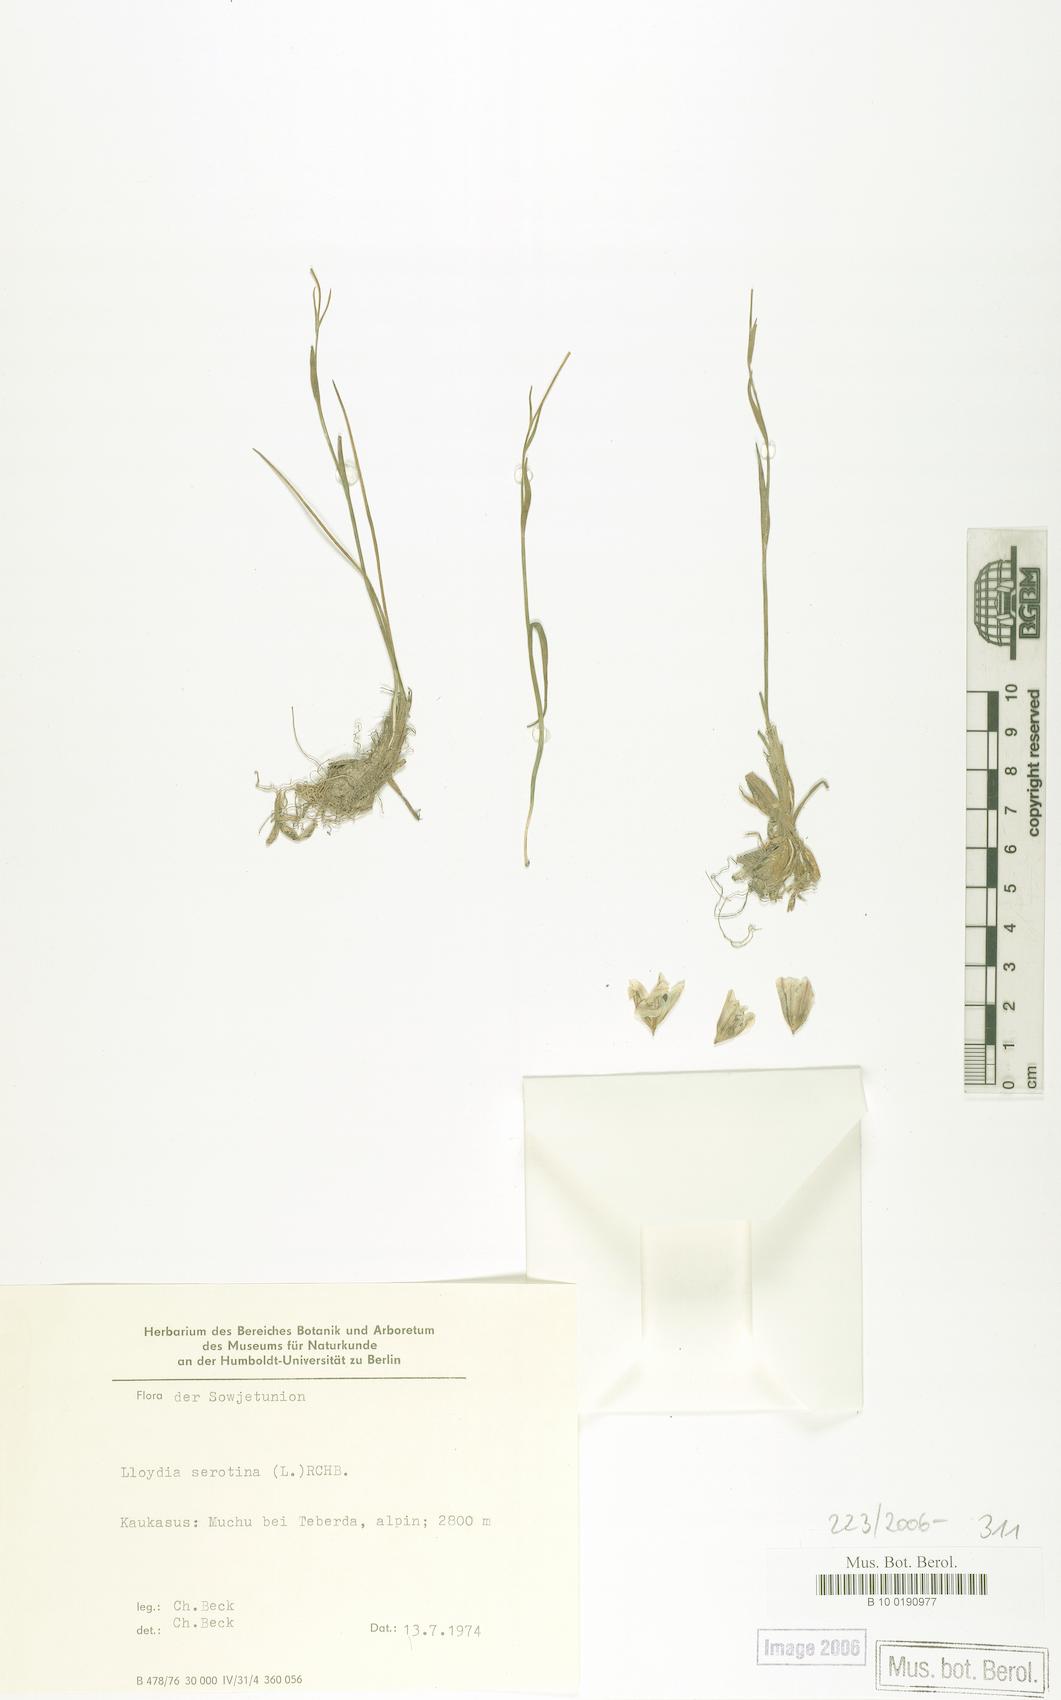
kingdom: Plantae
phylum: Tracheophyta
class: Liliopsida
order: Liliales
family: Liliaceae
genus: Gagea
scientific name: Gagea serotina
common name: Snowdon lily
